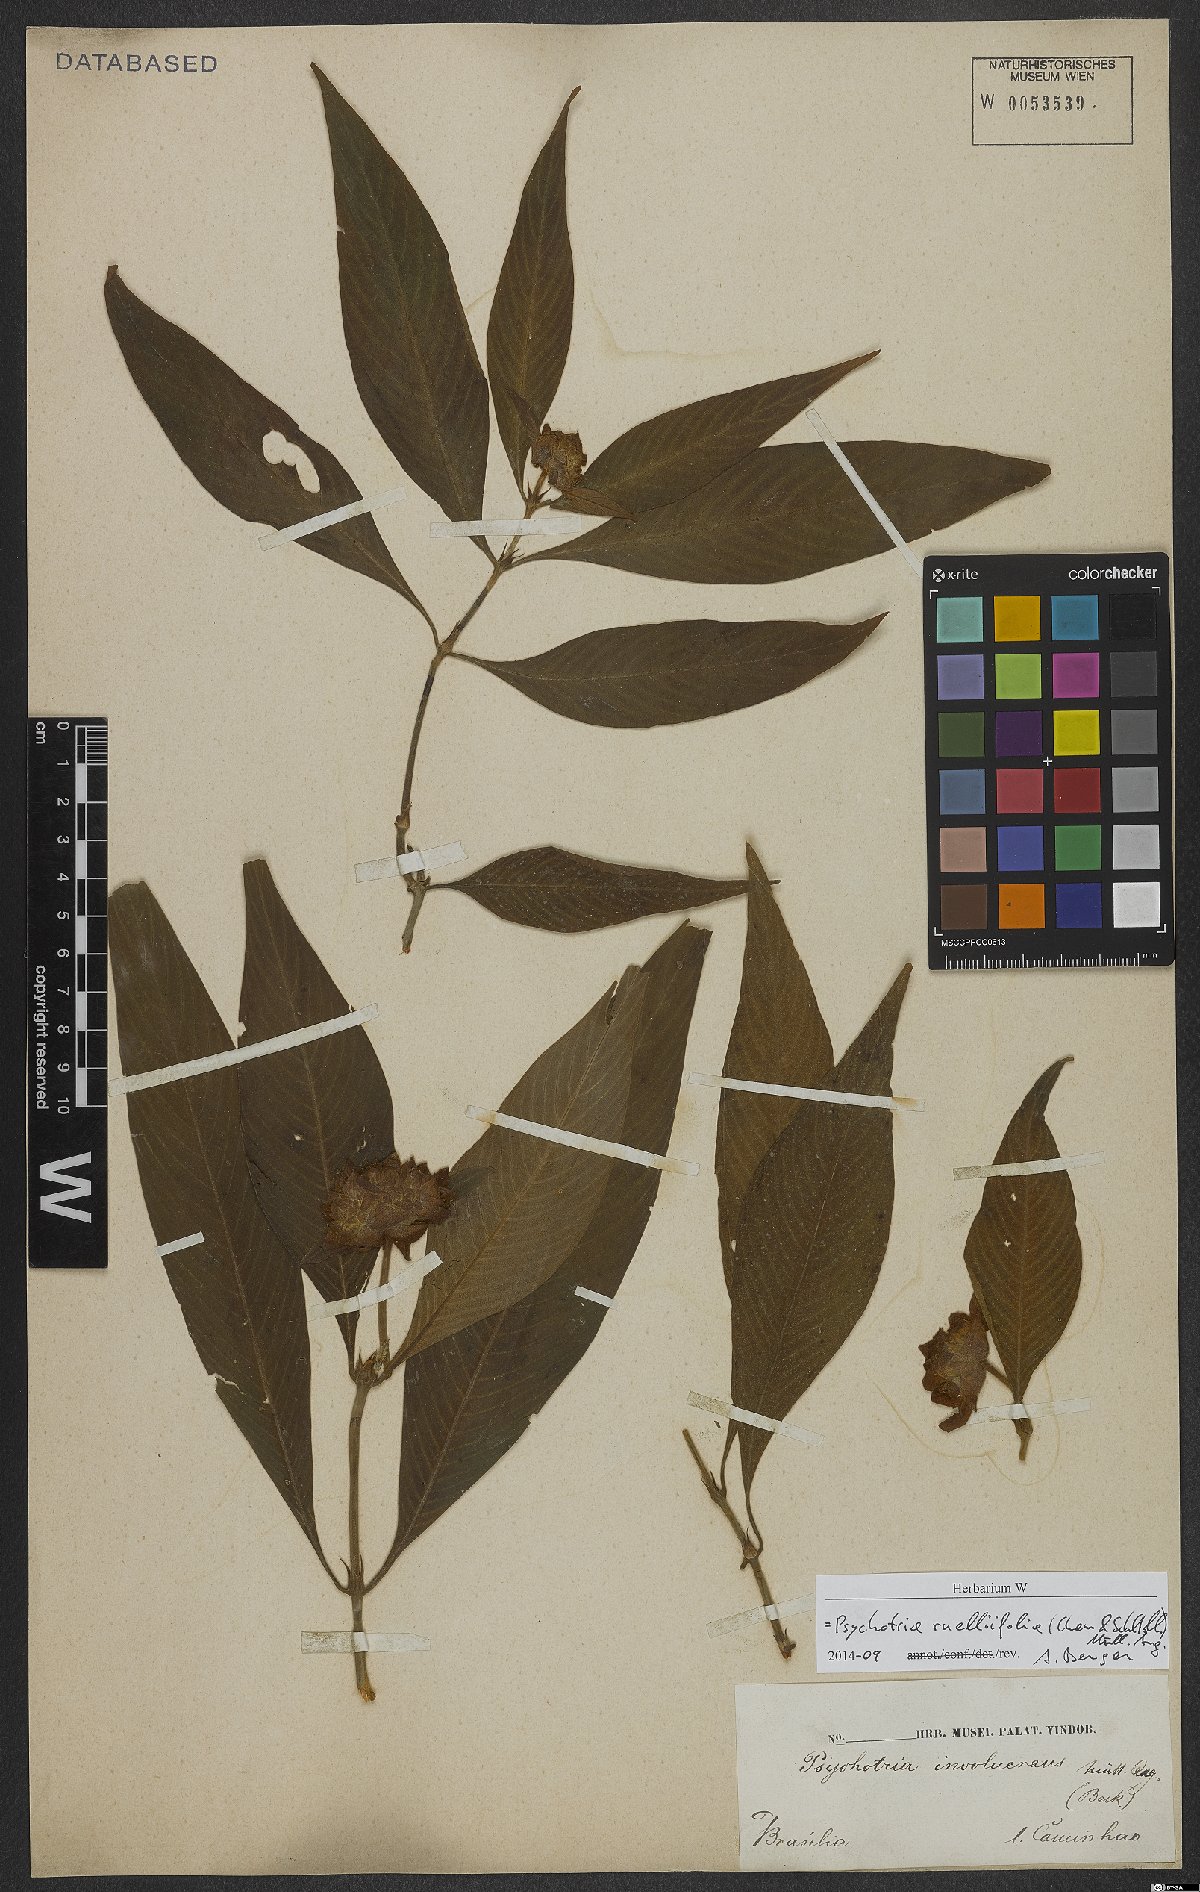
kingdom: Plantae
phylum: Tracheophyta
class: Magnoliopsida
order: Gentianales
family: Rubiaceae
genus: Palicourea
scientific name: Palicourea ruelliifolia
